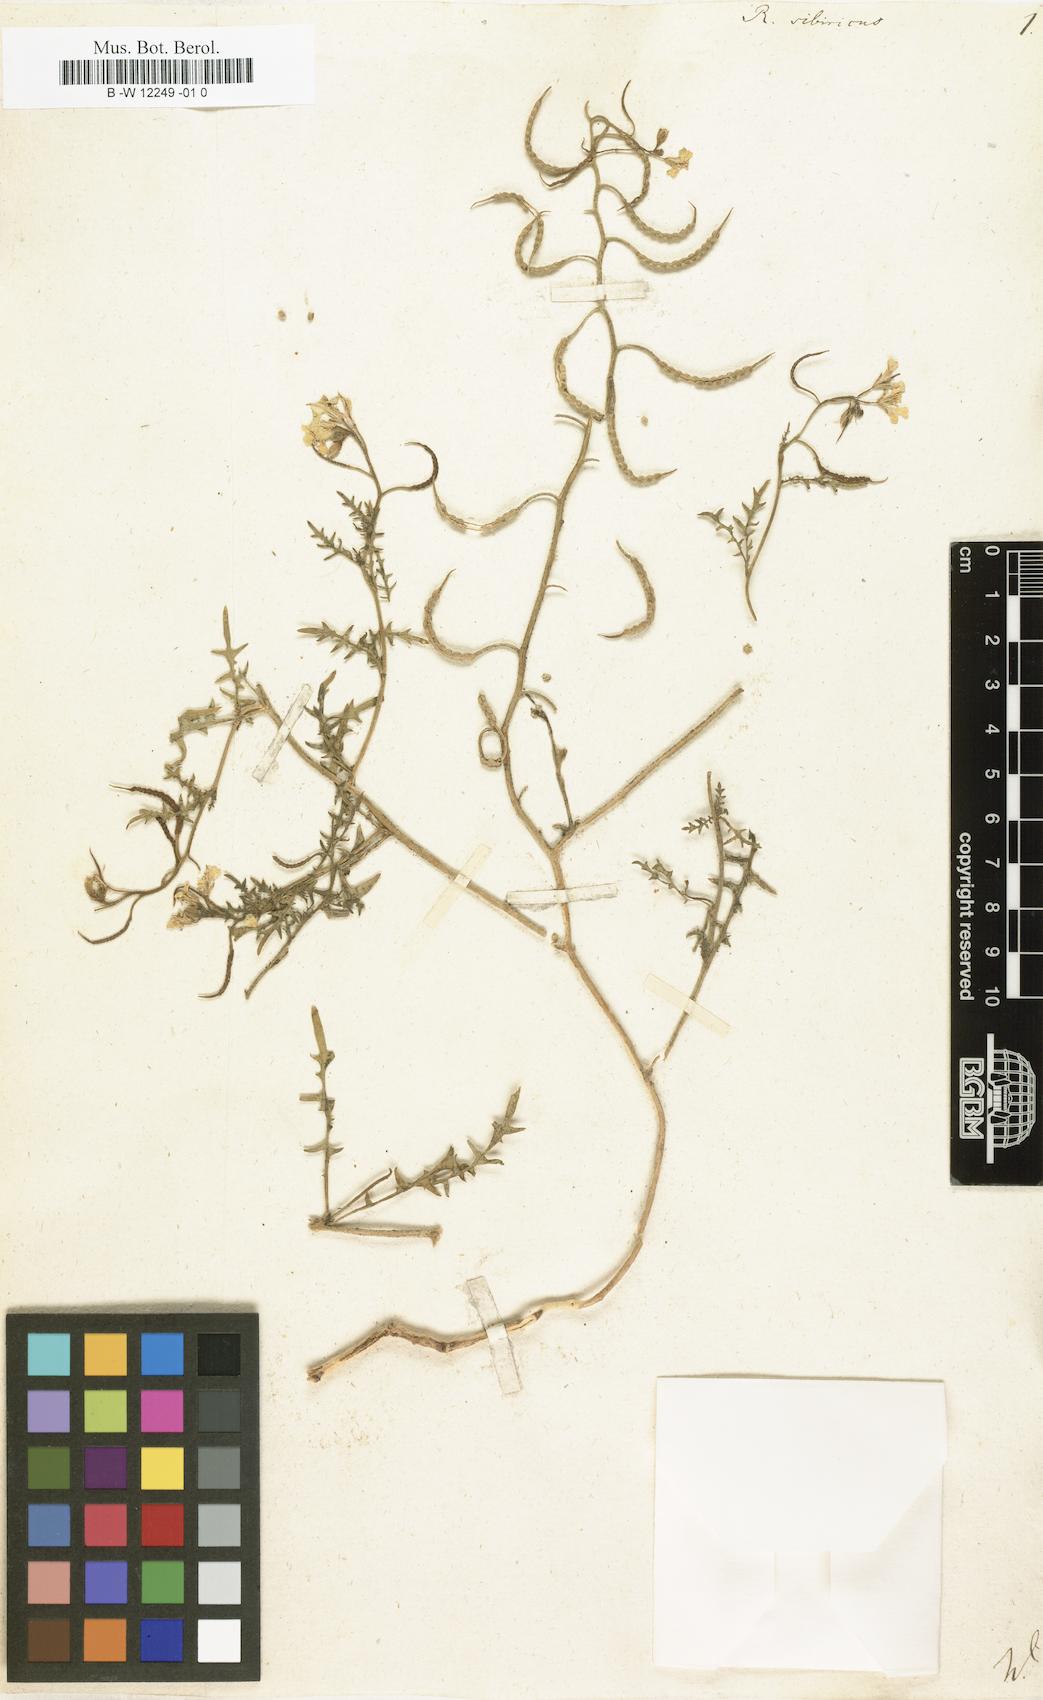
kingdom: Plantae
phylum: Tracheophyta
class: Magnoliopsida
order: Brassicales
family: Brassicaceae
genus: Chorispora
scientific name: Chorispora sibirica
